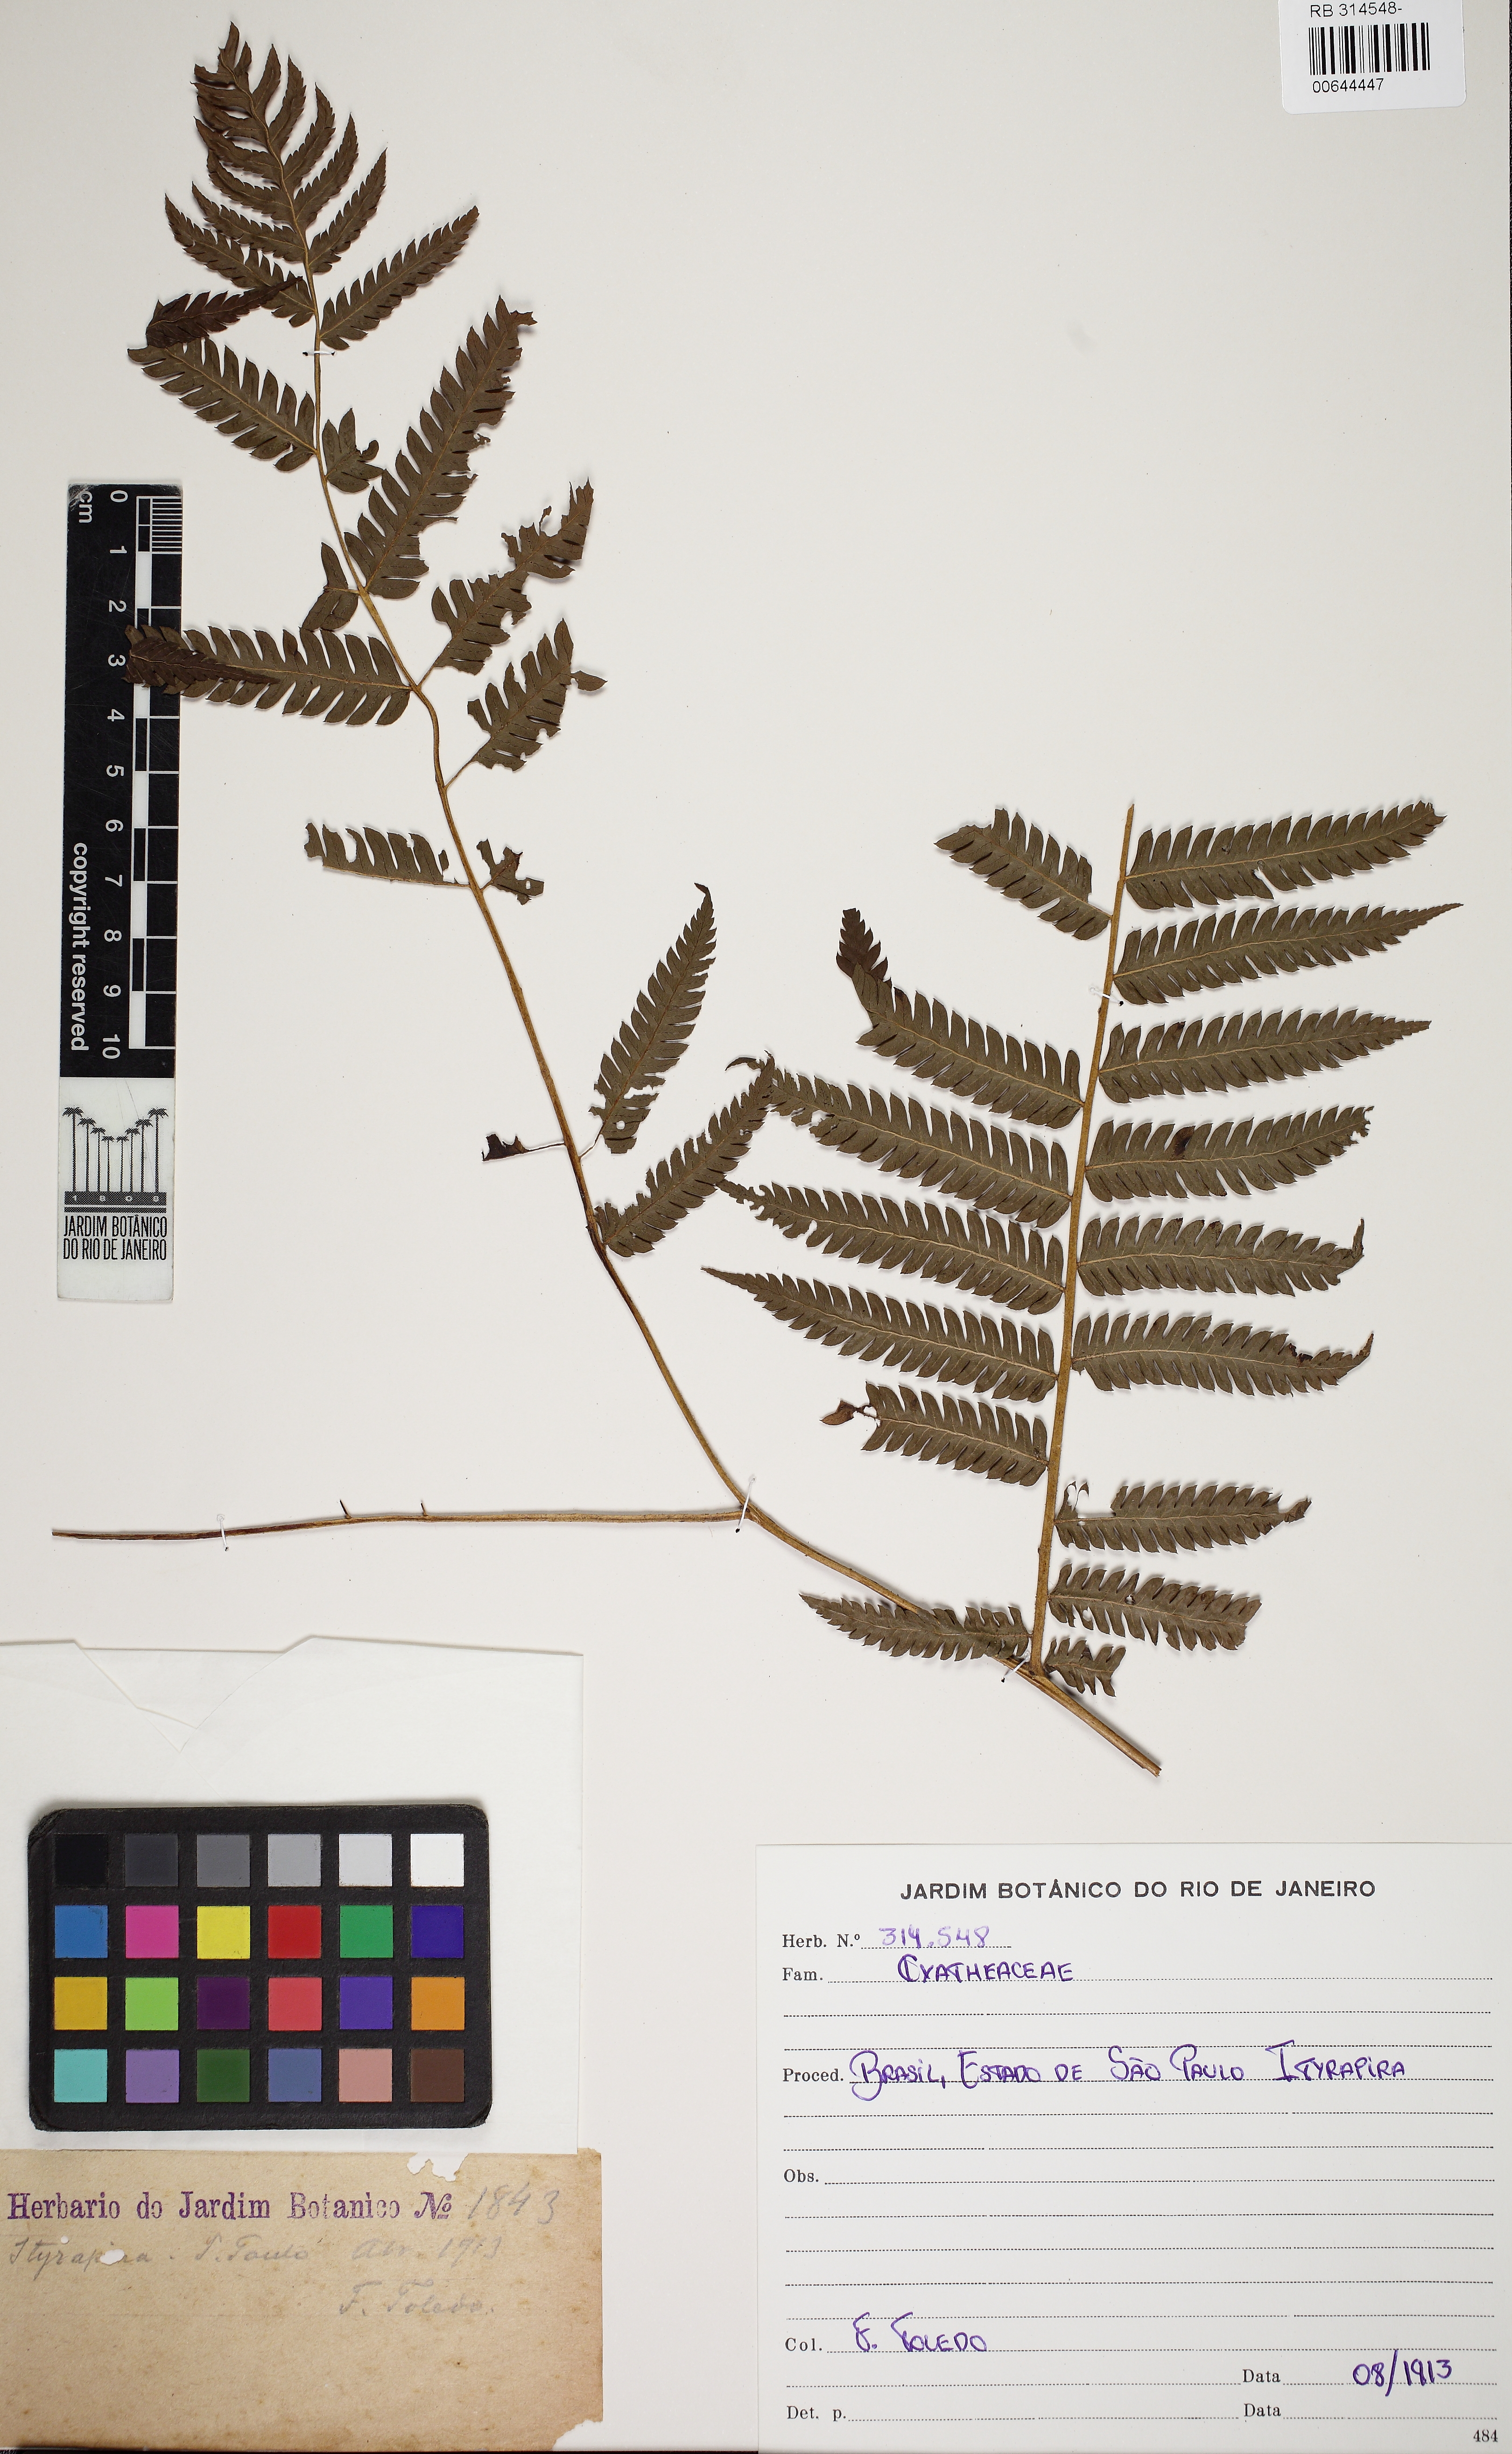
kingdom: Plantae
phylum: Tracheophyta
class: Polypodiopsida
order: Cyatheales
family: Cyatheaceae
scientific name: Cyatheaceae
